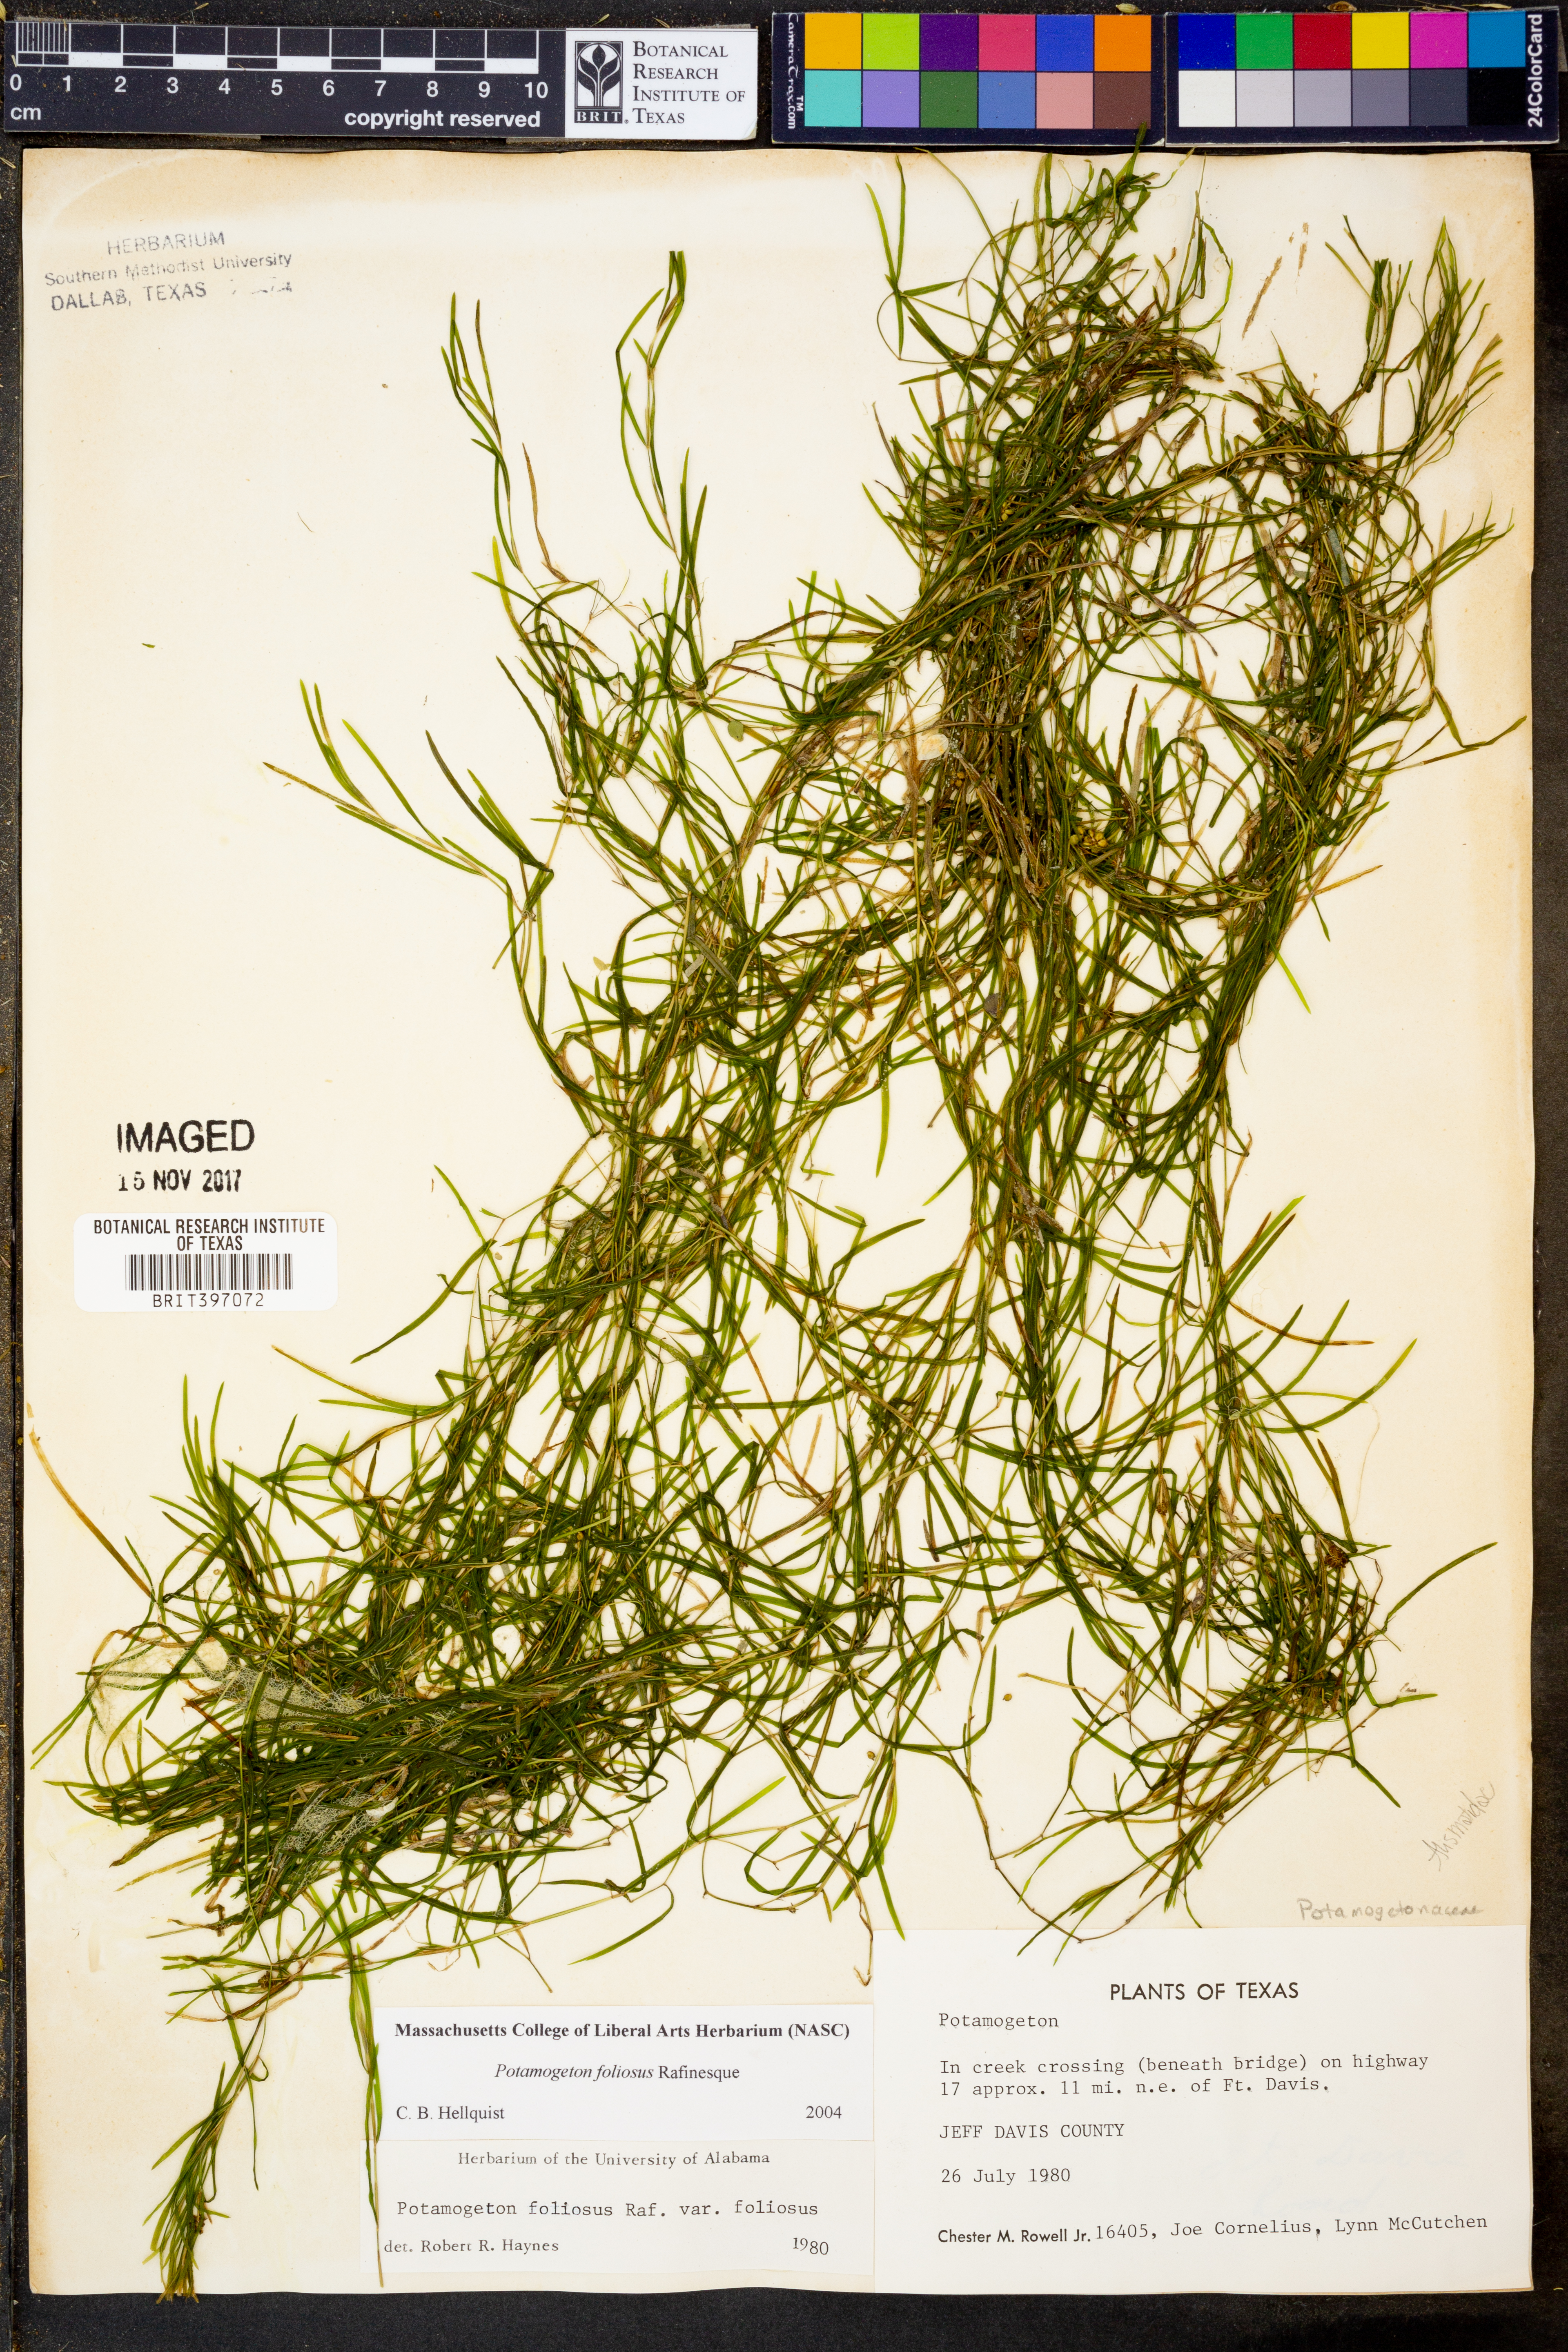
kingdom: Plantae
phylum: Tracheophyta
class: Liliopsida
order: Alismatales
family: Potamogetonaceae
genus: Potamogeton
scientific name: Potamogeton foliosus
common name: Leafy pondweed
